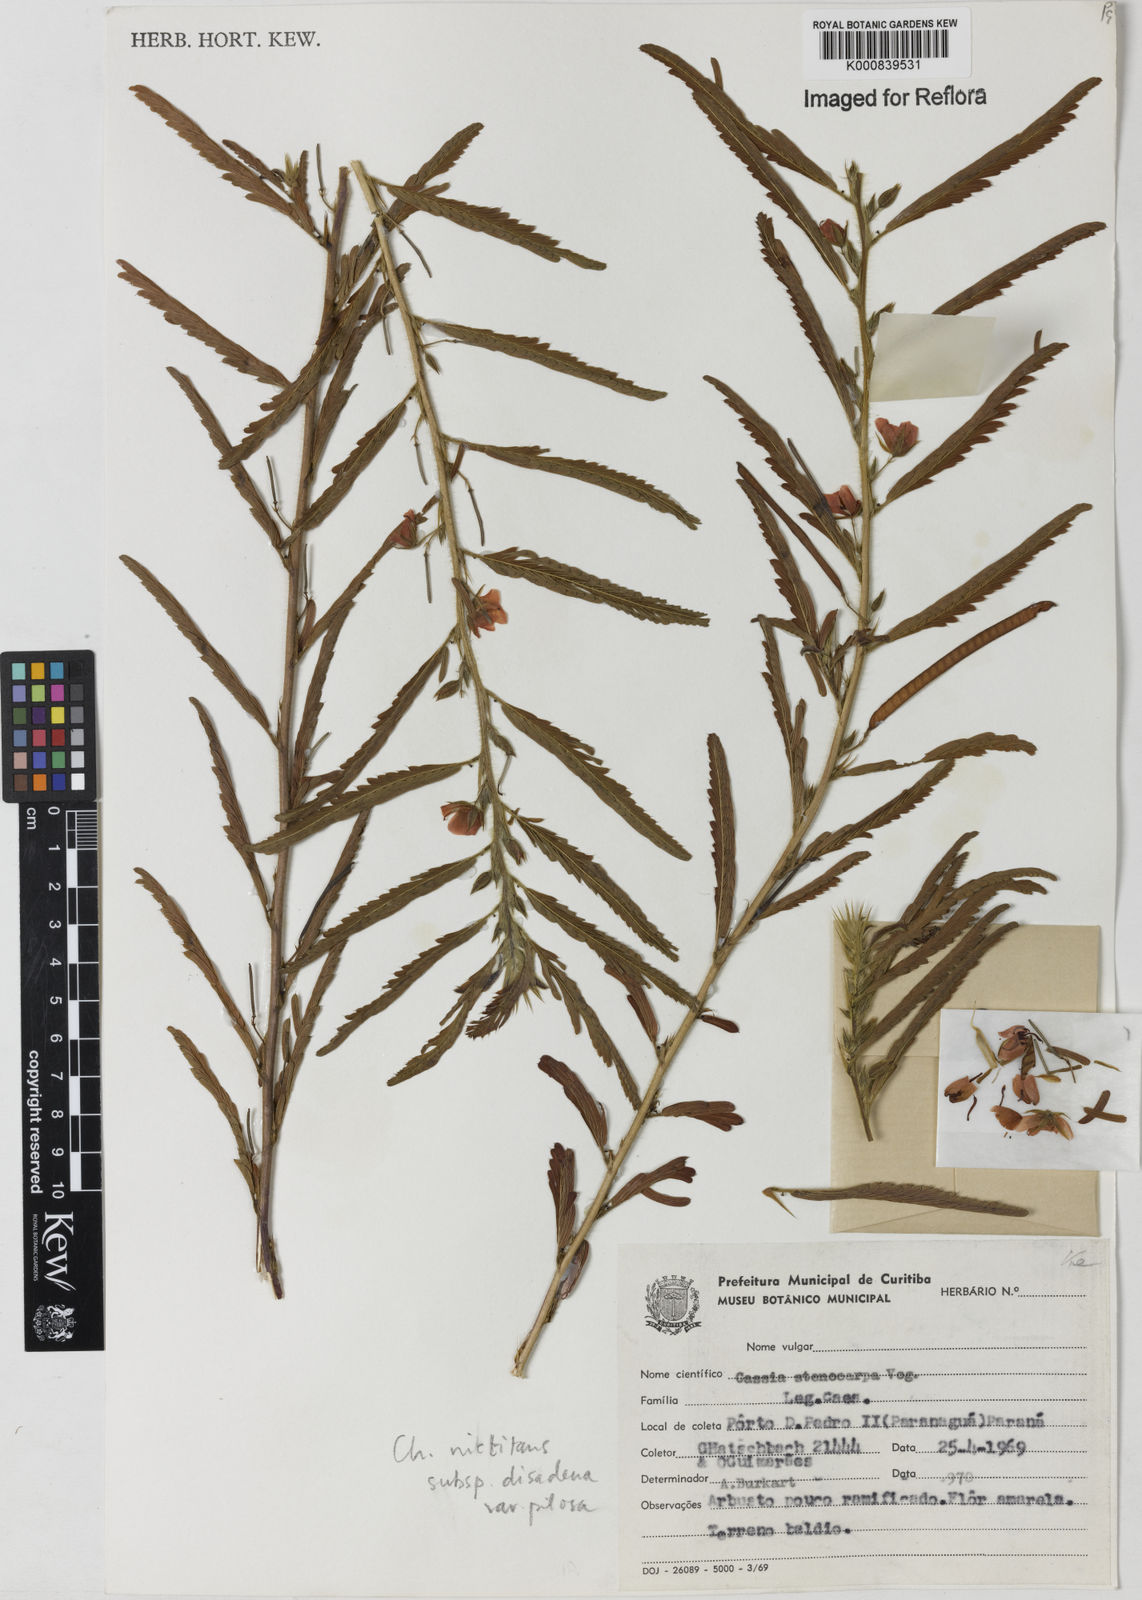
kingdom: Plantae
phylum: Tracheophyta
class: Magnoliopsida
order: Fabales
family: Fabaceae
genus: Chamaecrista
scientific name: Chamaecrista nictitans
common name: Sensitive cassia
